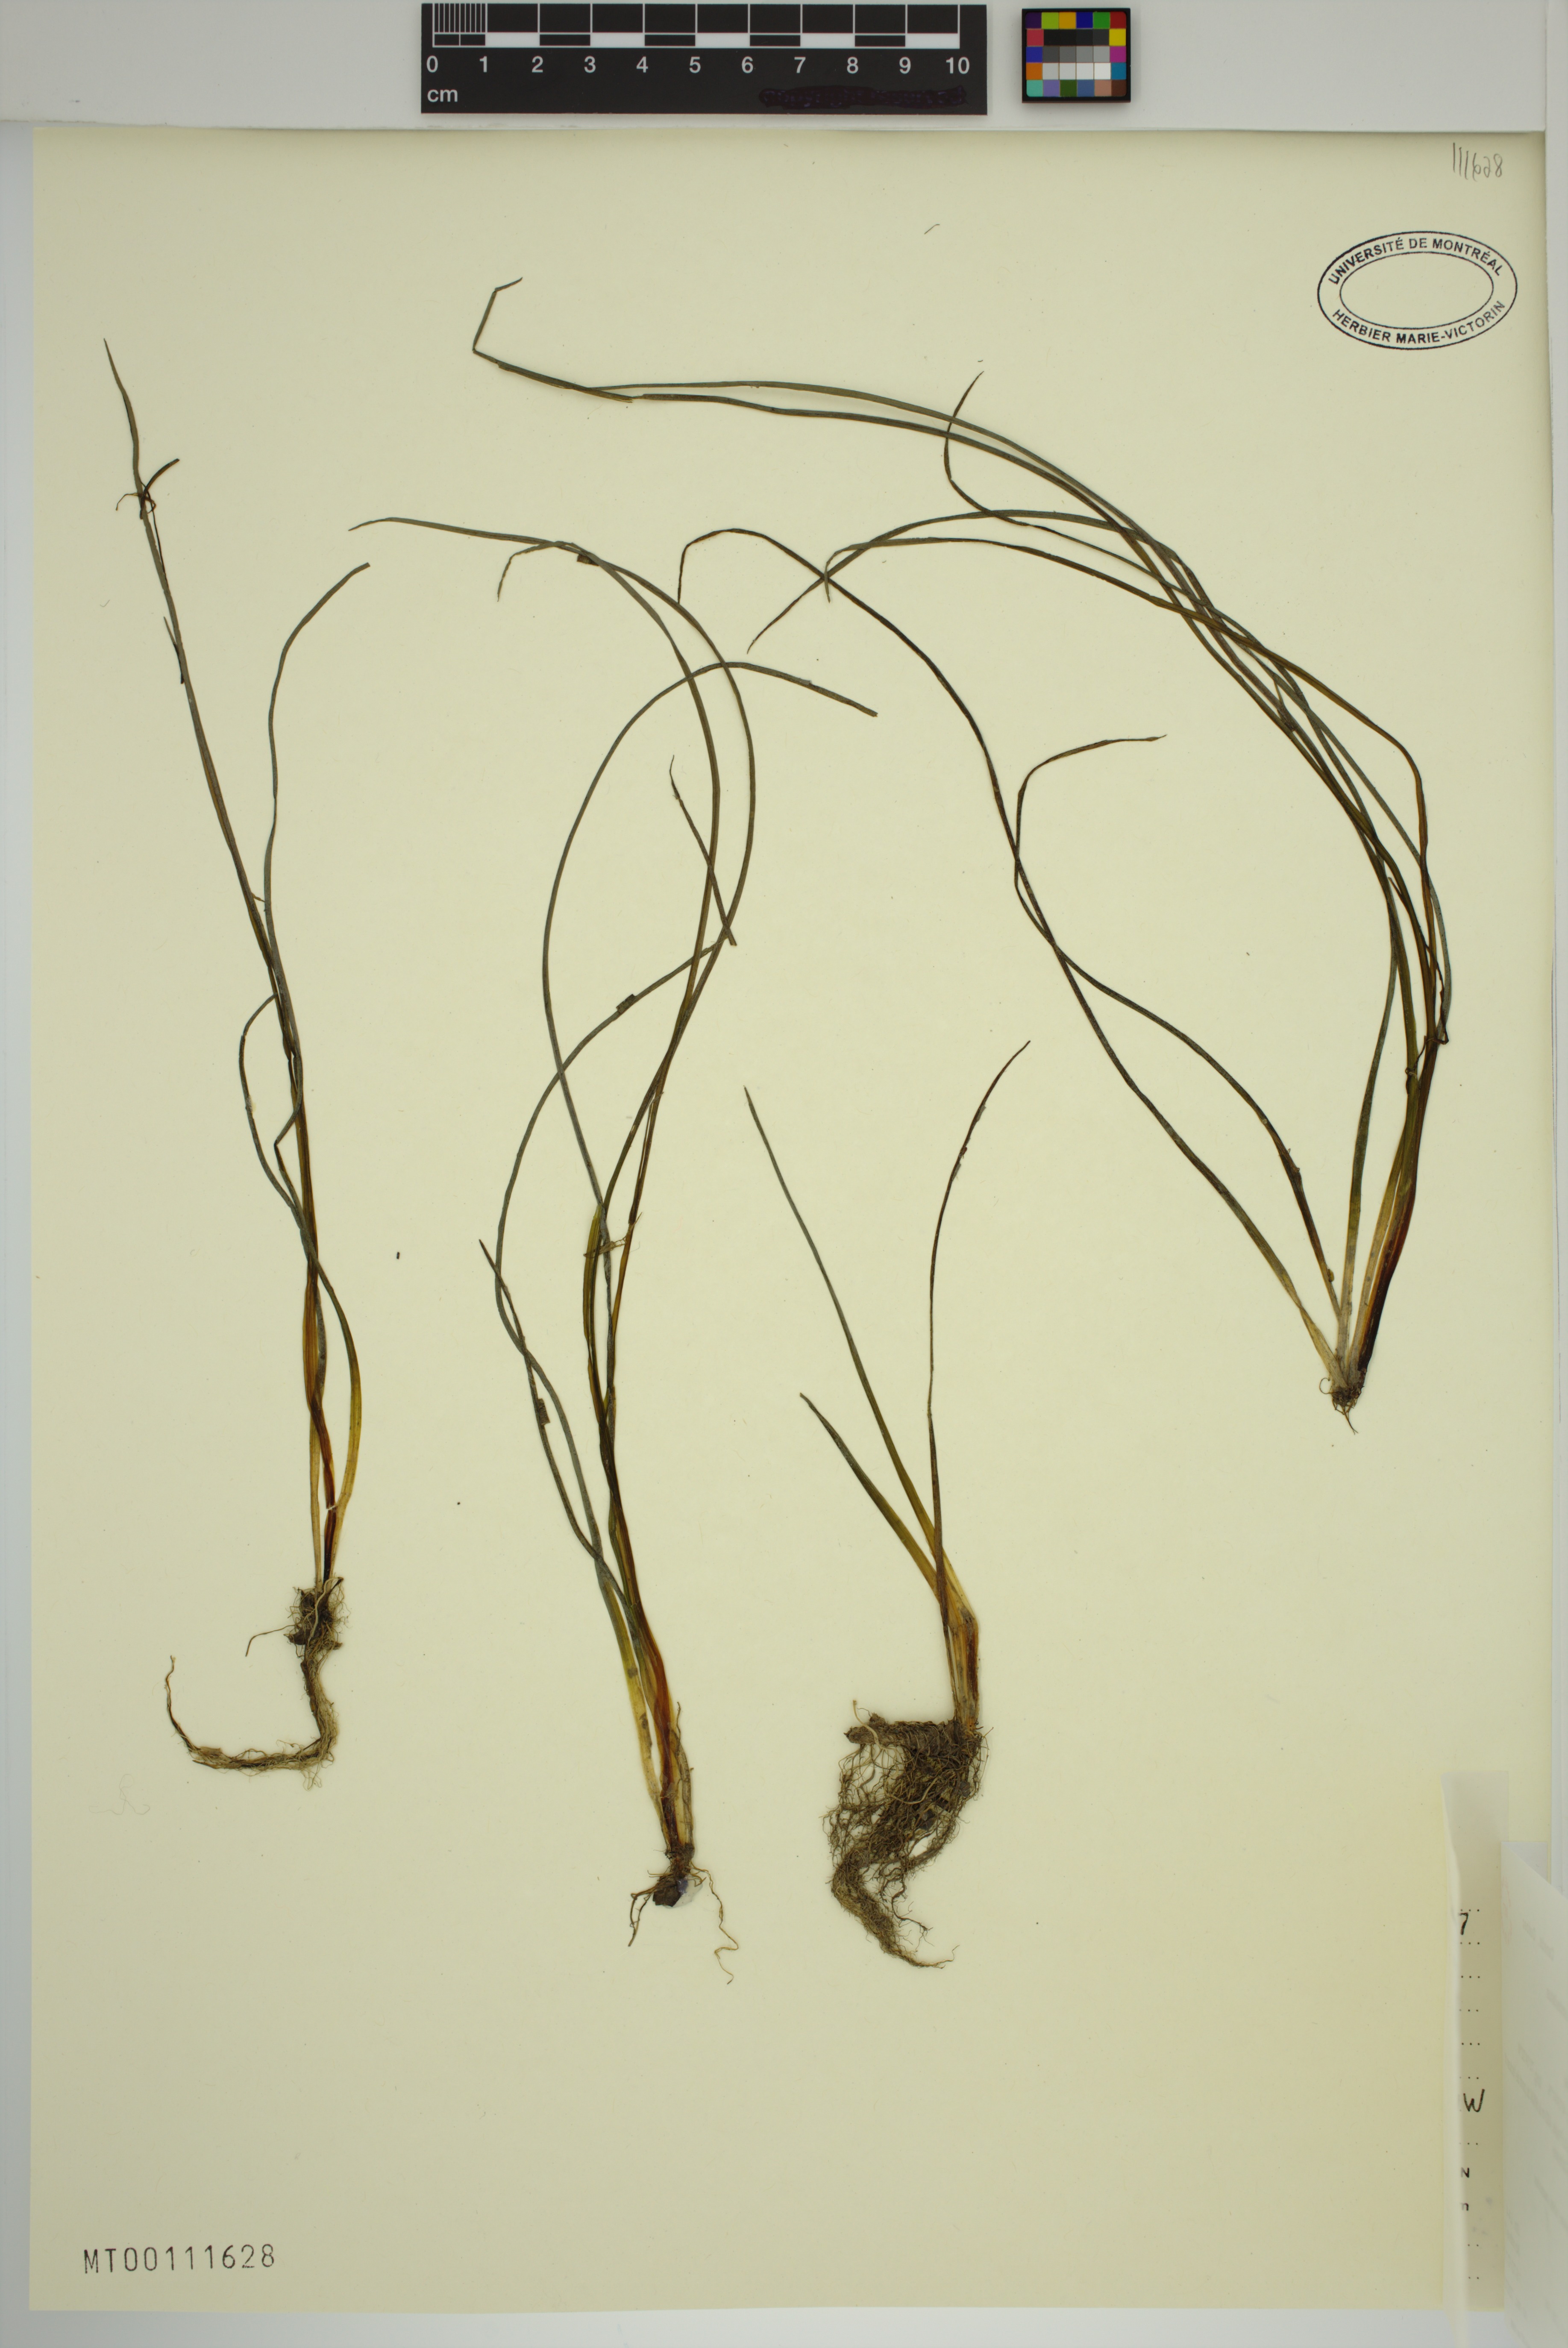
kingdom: Plantae
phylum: Tracheophyta
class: Liliopsida
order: Alismatales
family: Butomaceae
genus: Butomus
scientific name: Butomus umbellatus
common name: Flowering-rush
